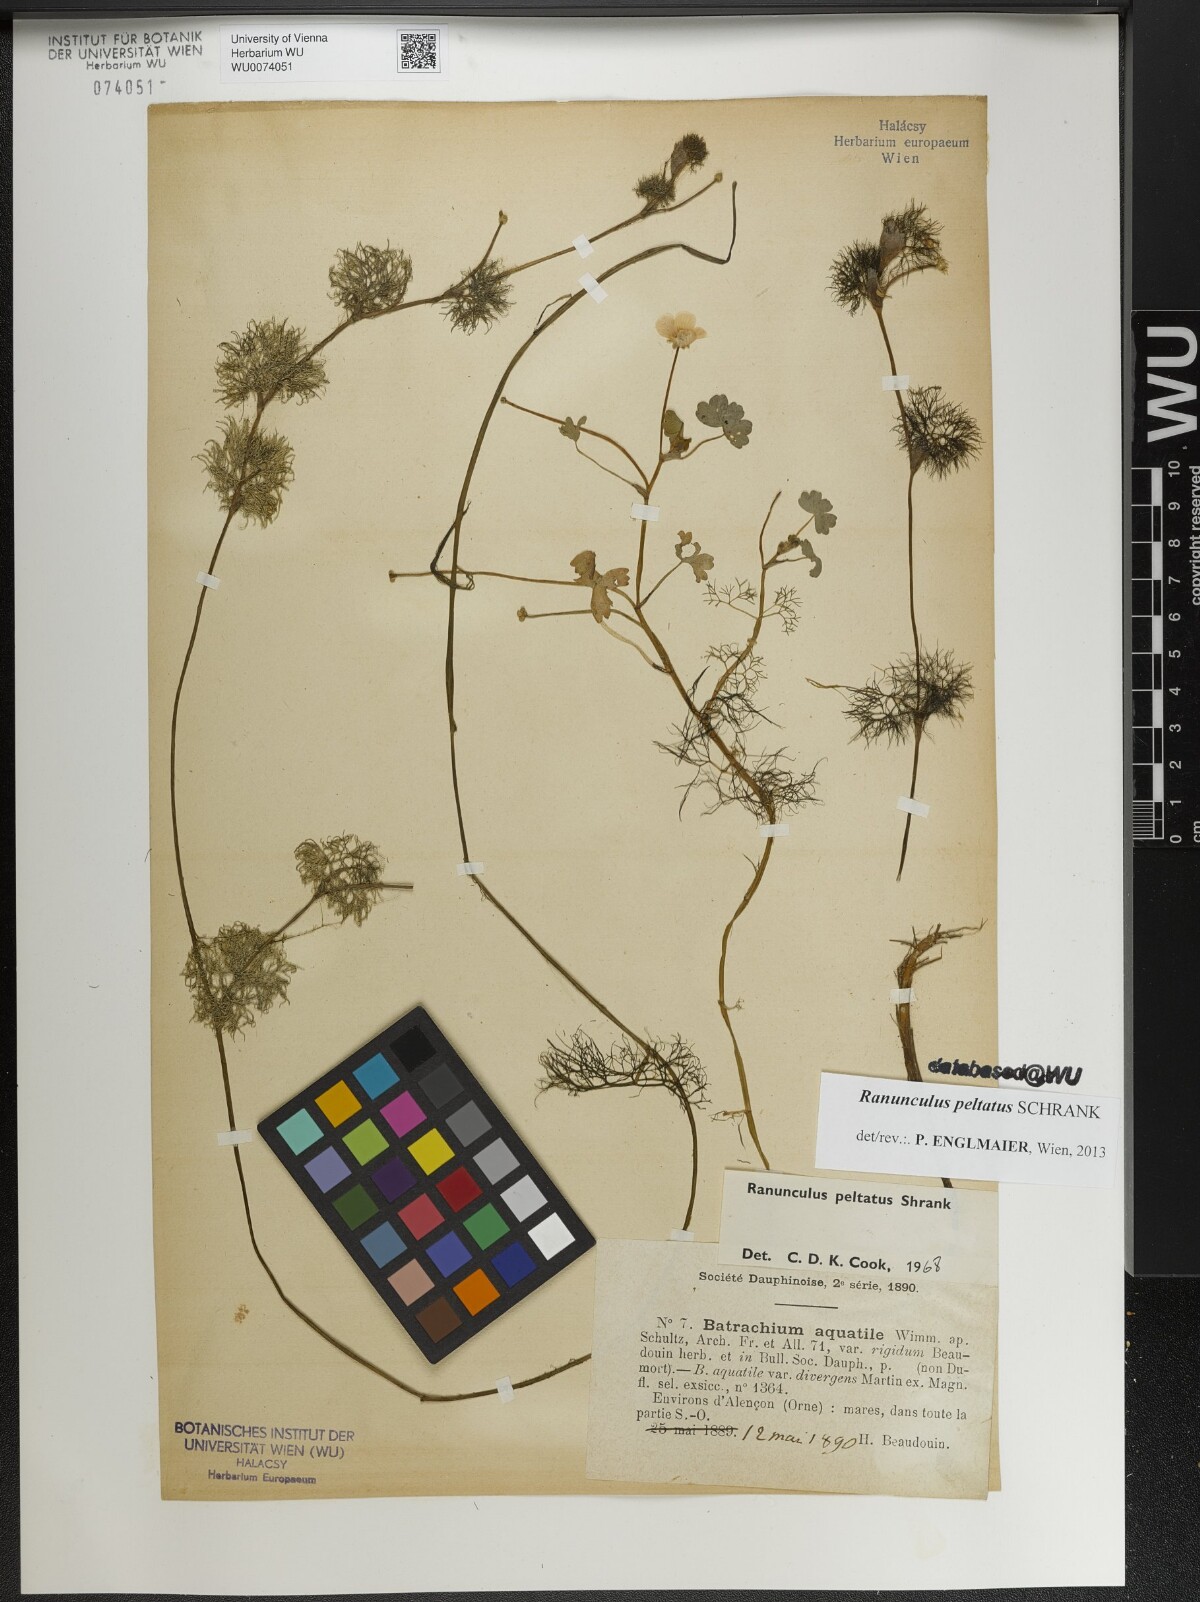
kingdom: Plantae
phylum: Tracheophyta
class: Magnoliopsida
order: Ranunculales
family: Ranunculaceae
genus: Ranunculus
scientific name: Ranunculus peltatus
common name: Pond water-crowfoot
